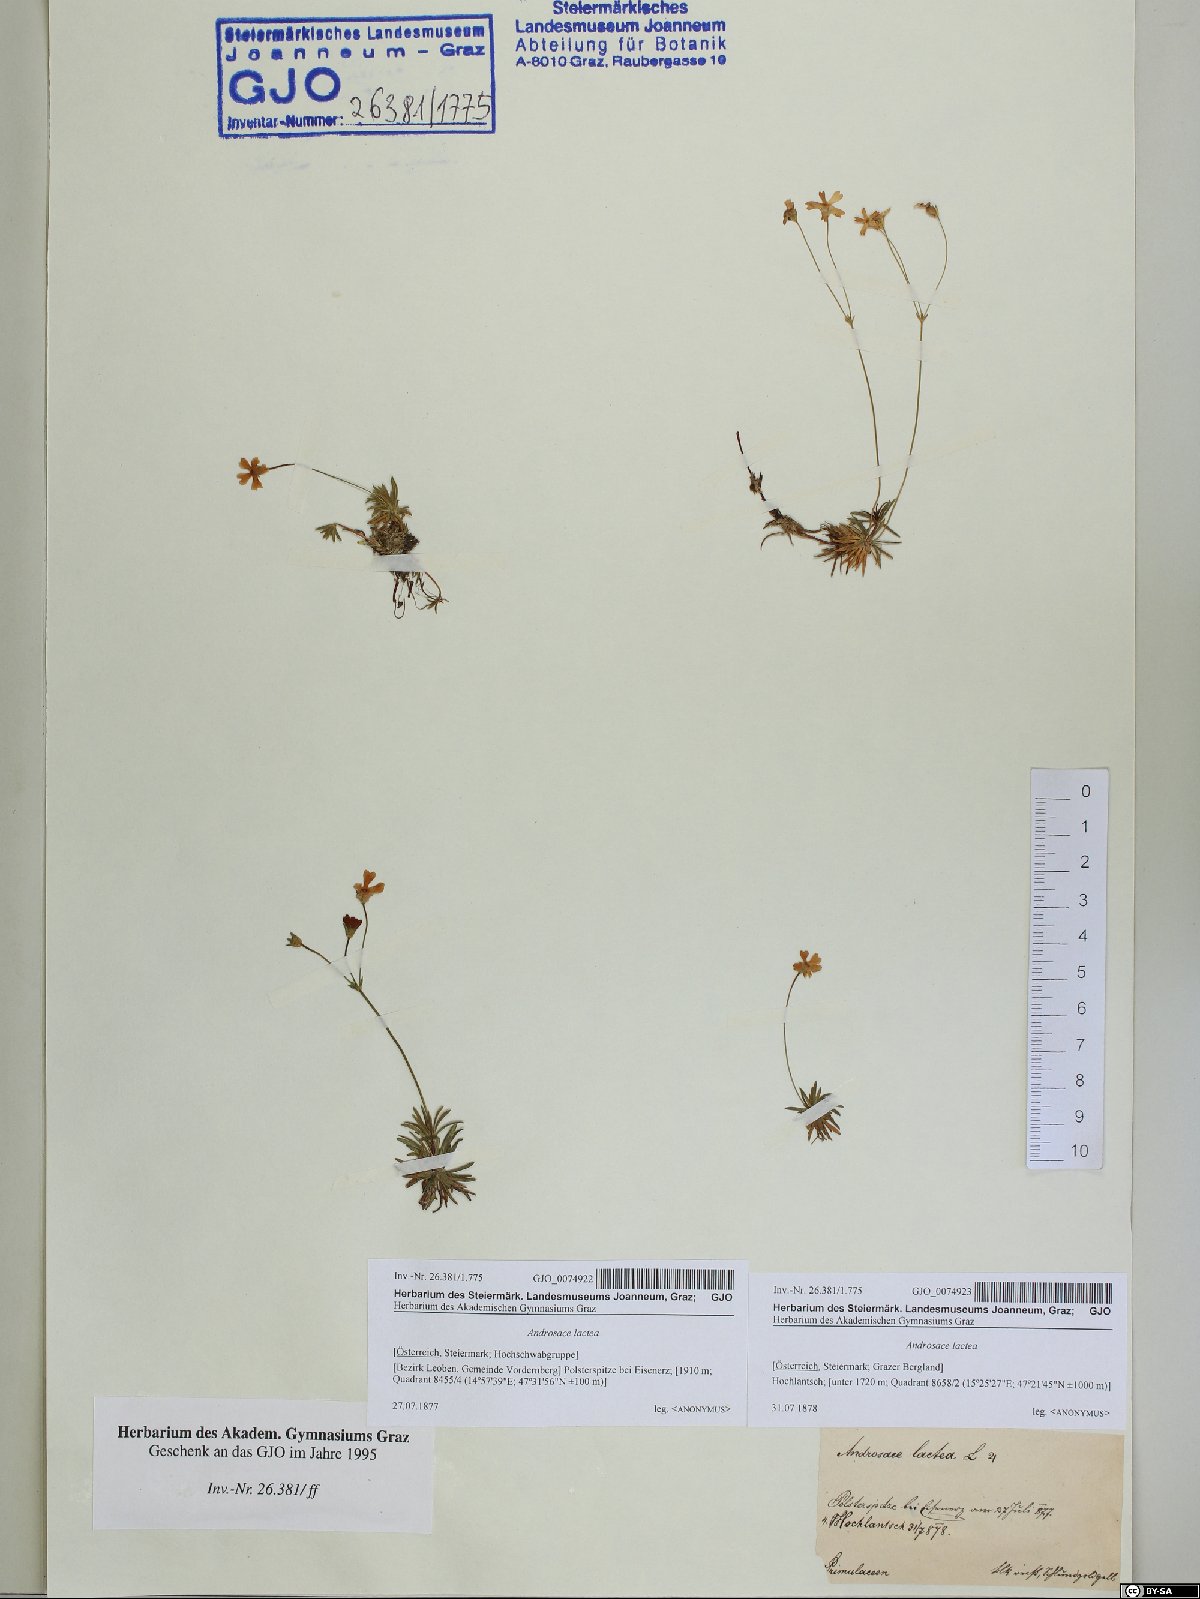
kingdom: Plantae
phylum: Tracheophyta
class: Magnoliopsida
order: Ericales
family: Primulaceae
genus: Androsace
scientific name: Androsace lactea
